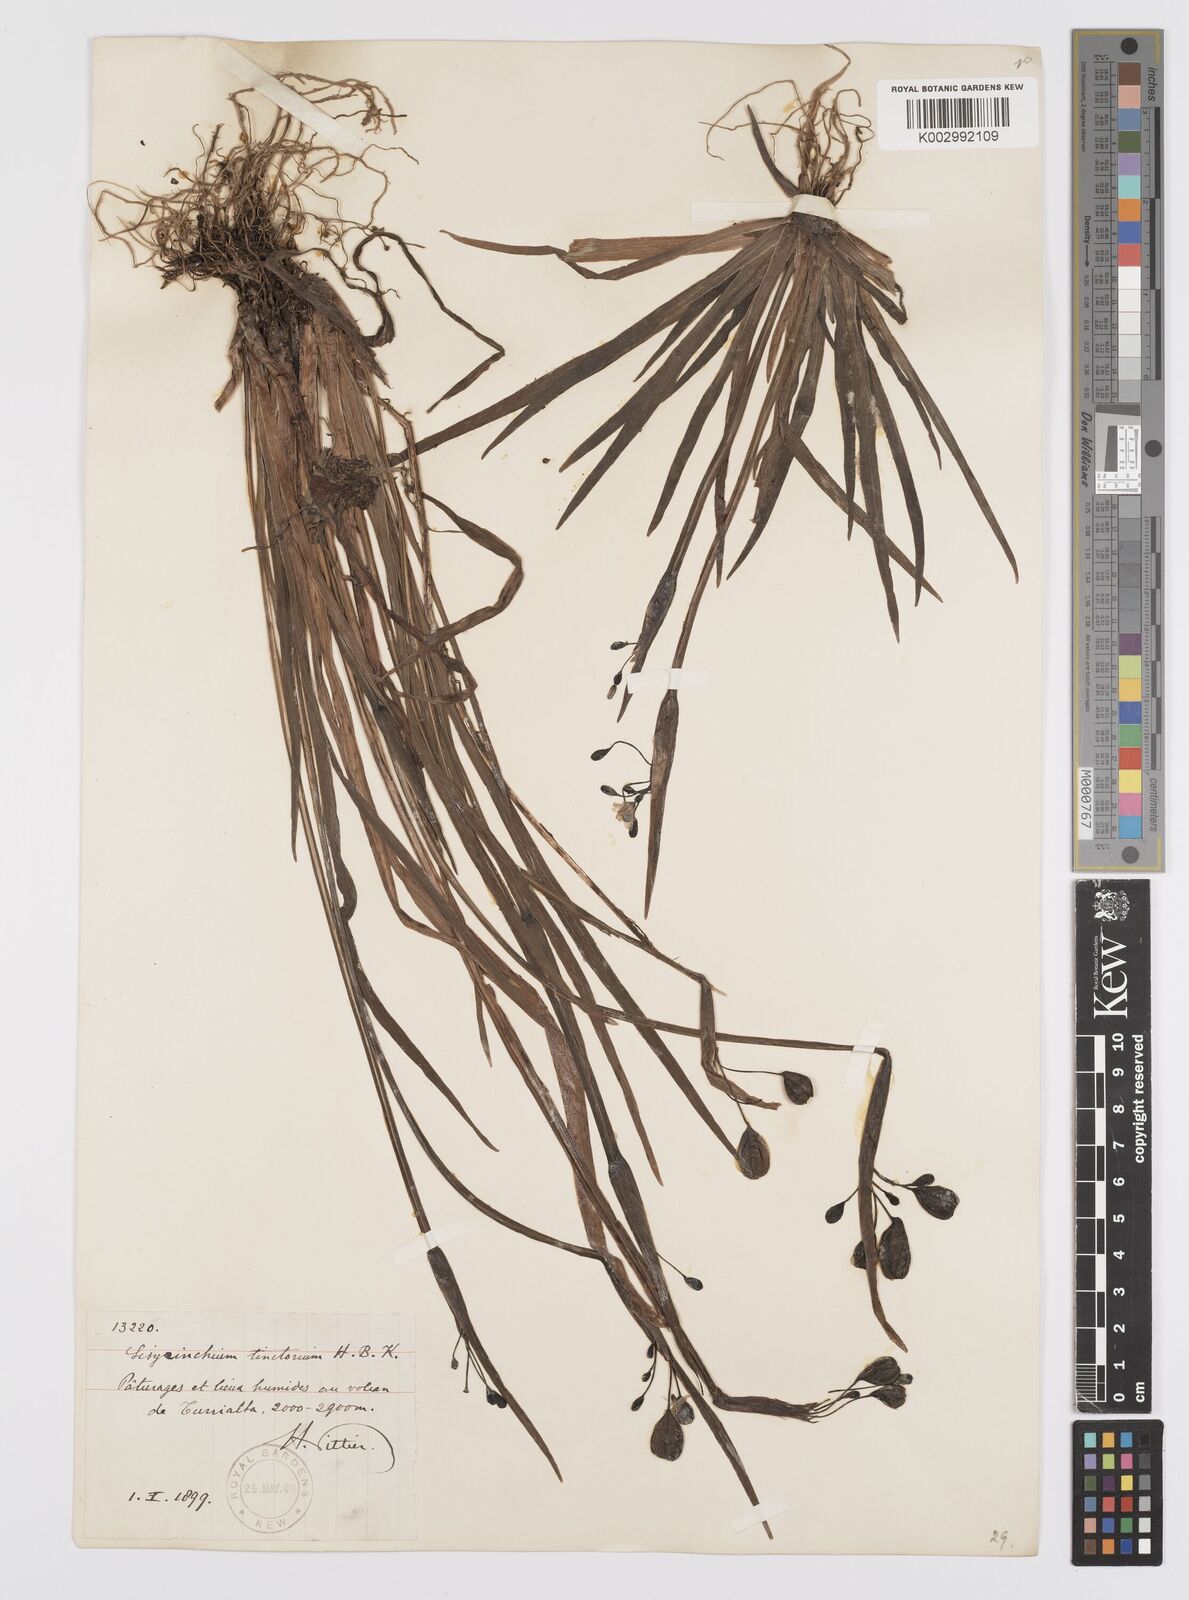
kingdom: Plantae
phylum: Tracheophyta
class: Liliopsida
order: Asparagales
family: Iridaceae
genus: Sisyrinchium
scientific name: Sisyrinchium tinctorium
